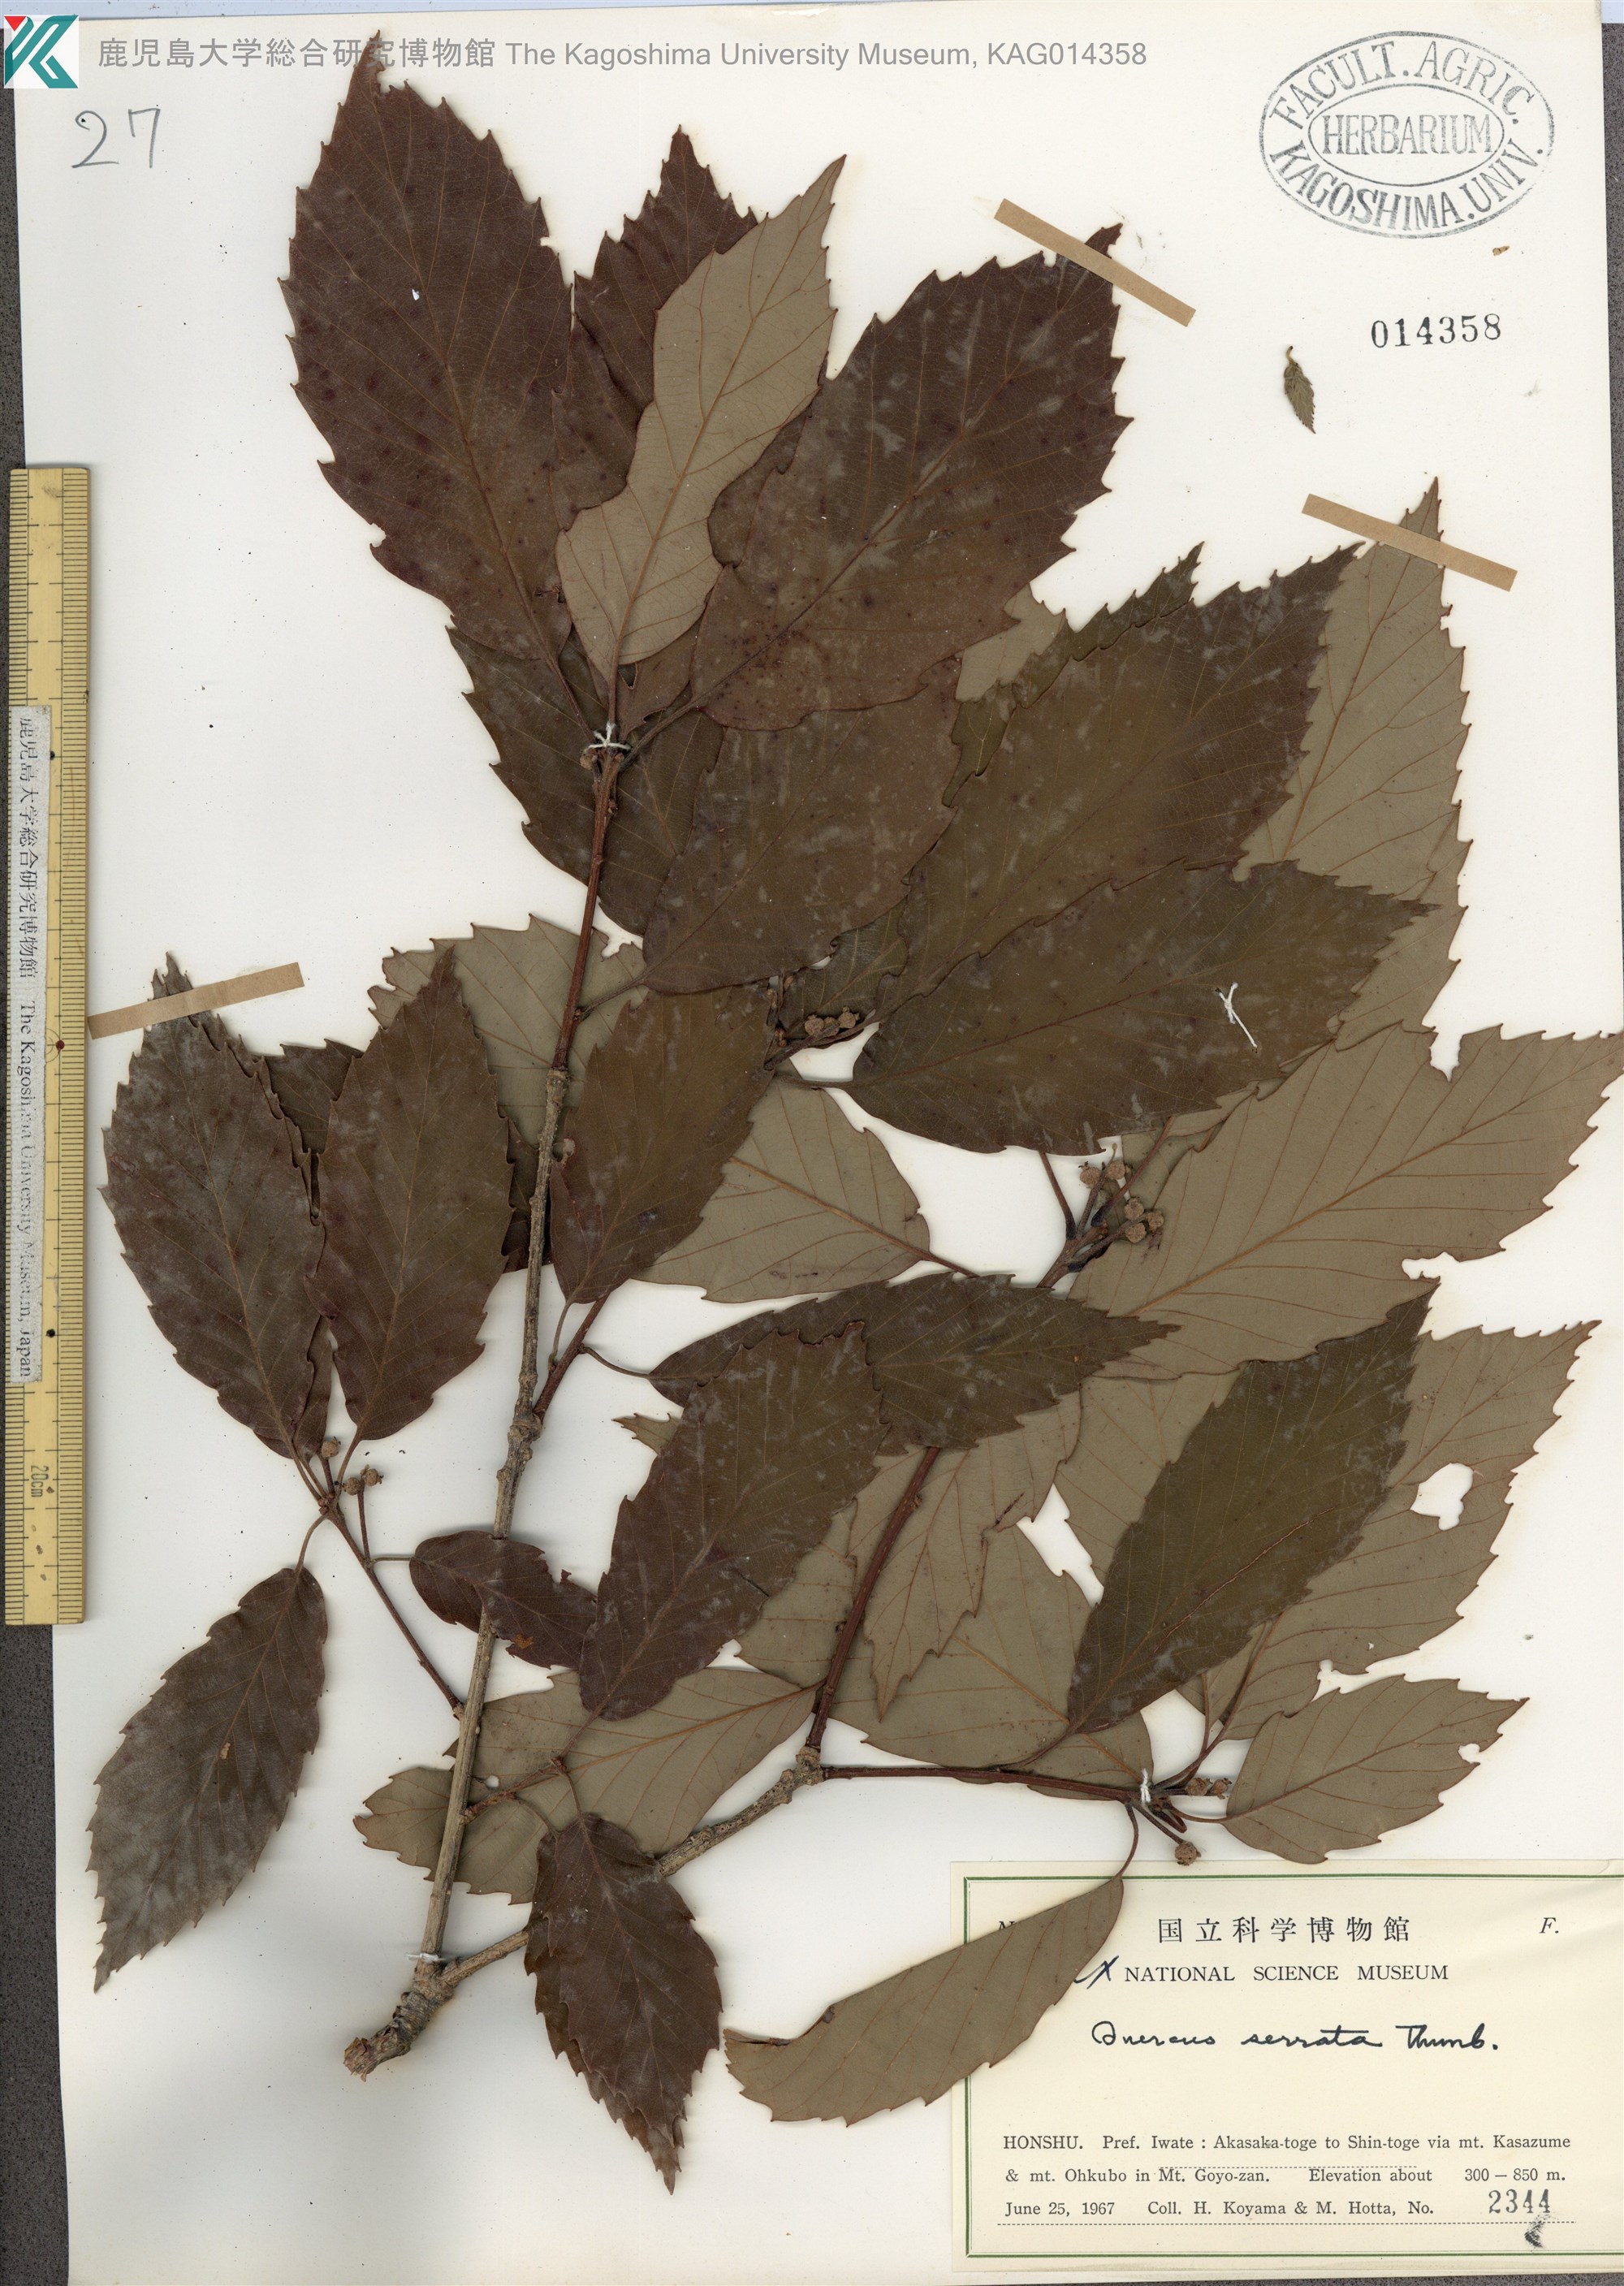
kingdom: Plantae
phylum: Tracheophyta
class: Magnoliopsida
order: Fagales
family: Fagaceae
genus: Quercus
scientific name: Quercus serrata
